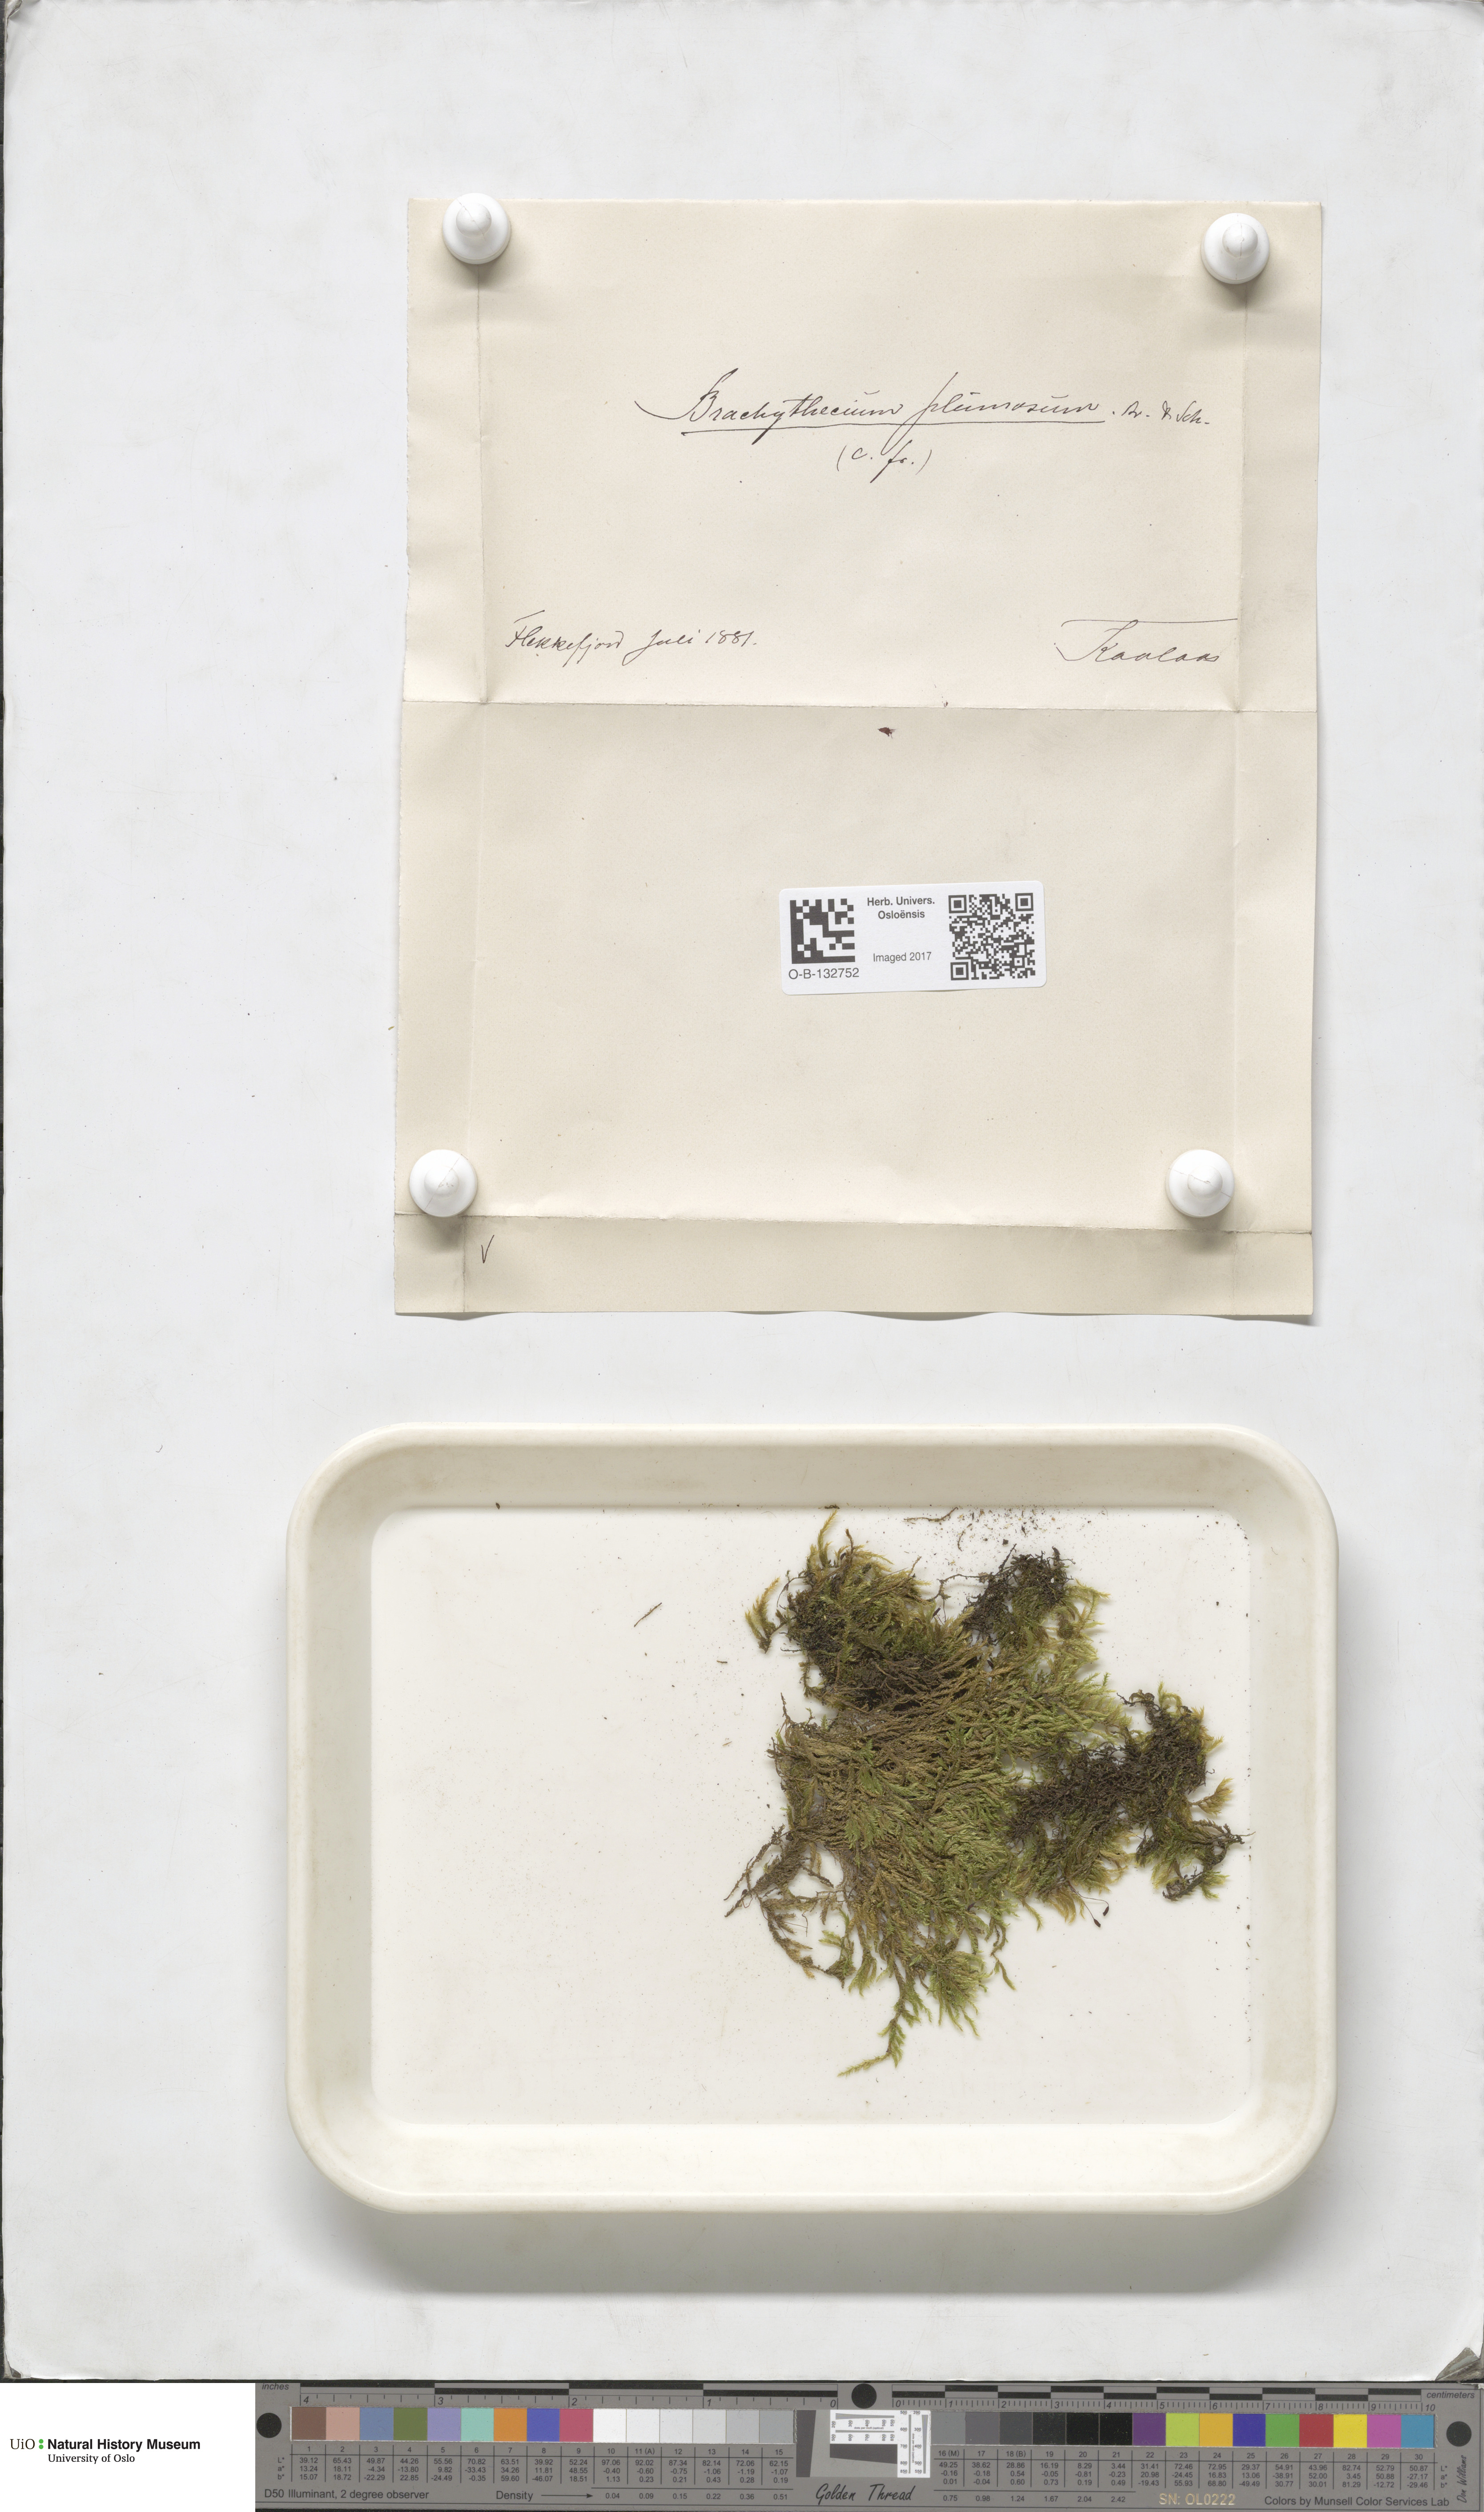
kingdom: Plantae
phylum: Bryophyta
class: Bryopsida
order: Hypnales
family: Brachytheciaceae
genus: Sciuro-hypnum
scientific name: Sciuro-hypnum plumosum
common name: Rusty feather-moss
